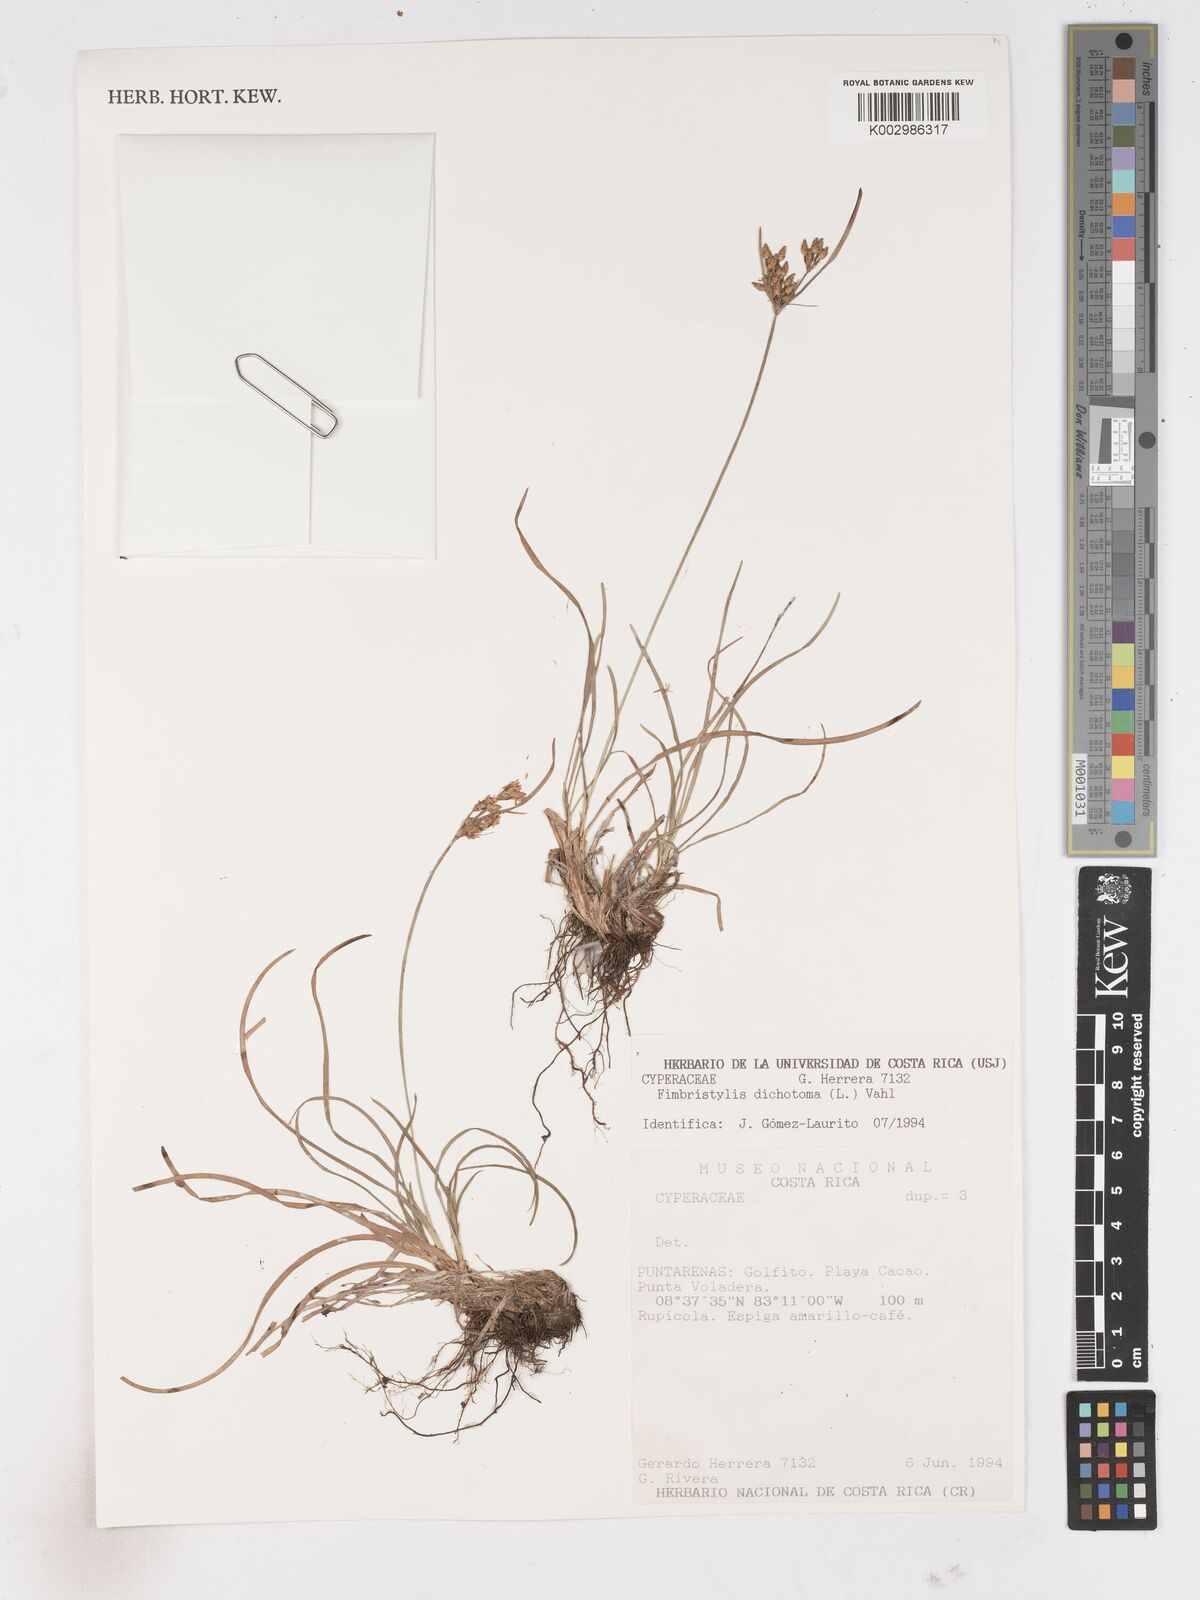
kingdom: Plantae
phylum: Tracheophyta
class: Liliopsida
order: Poales
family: Cyperaceae
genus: Fimbristylis
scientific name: Fimbristylis dichotoma
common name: Forked fimbry
